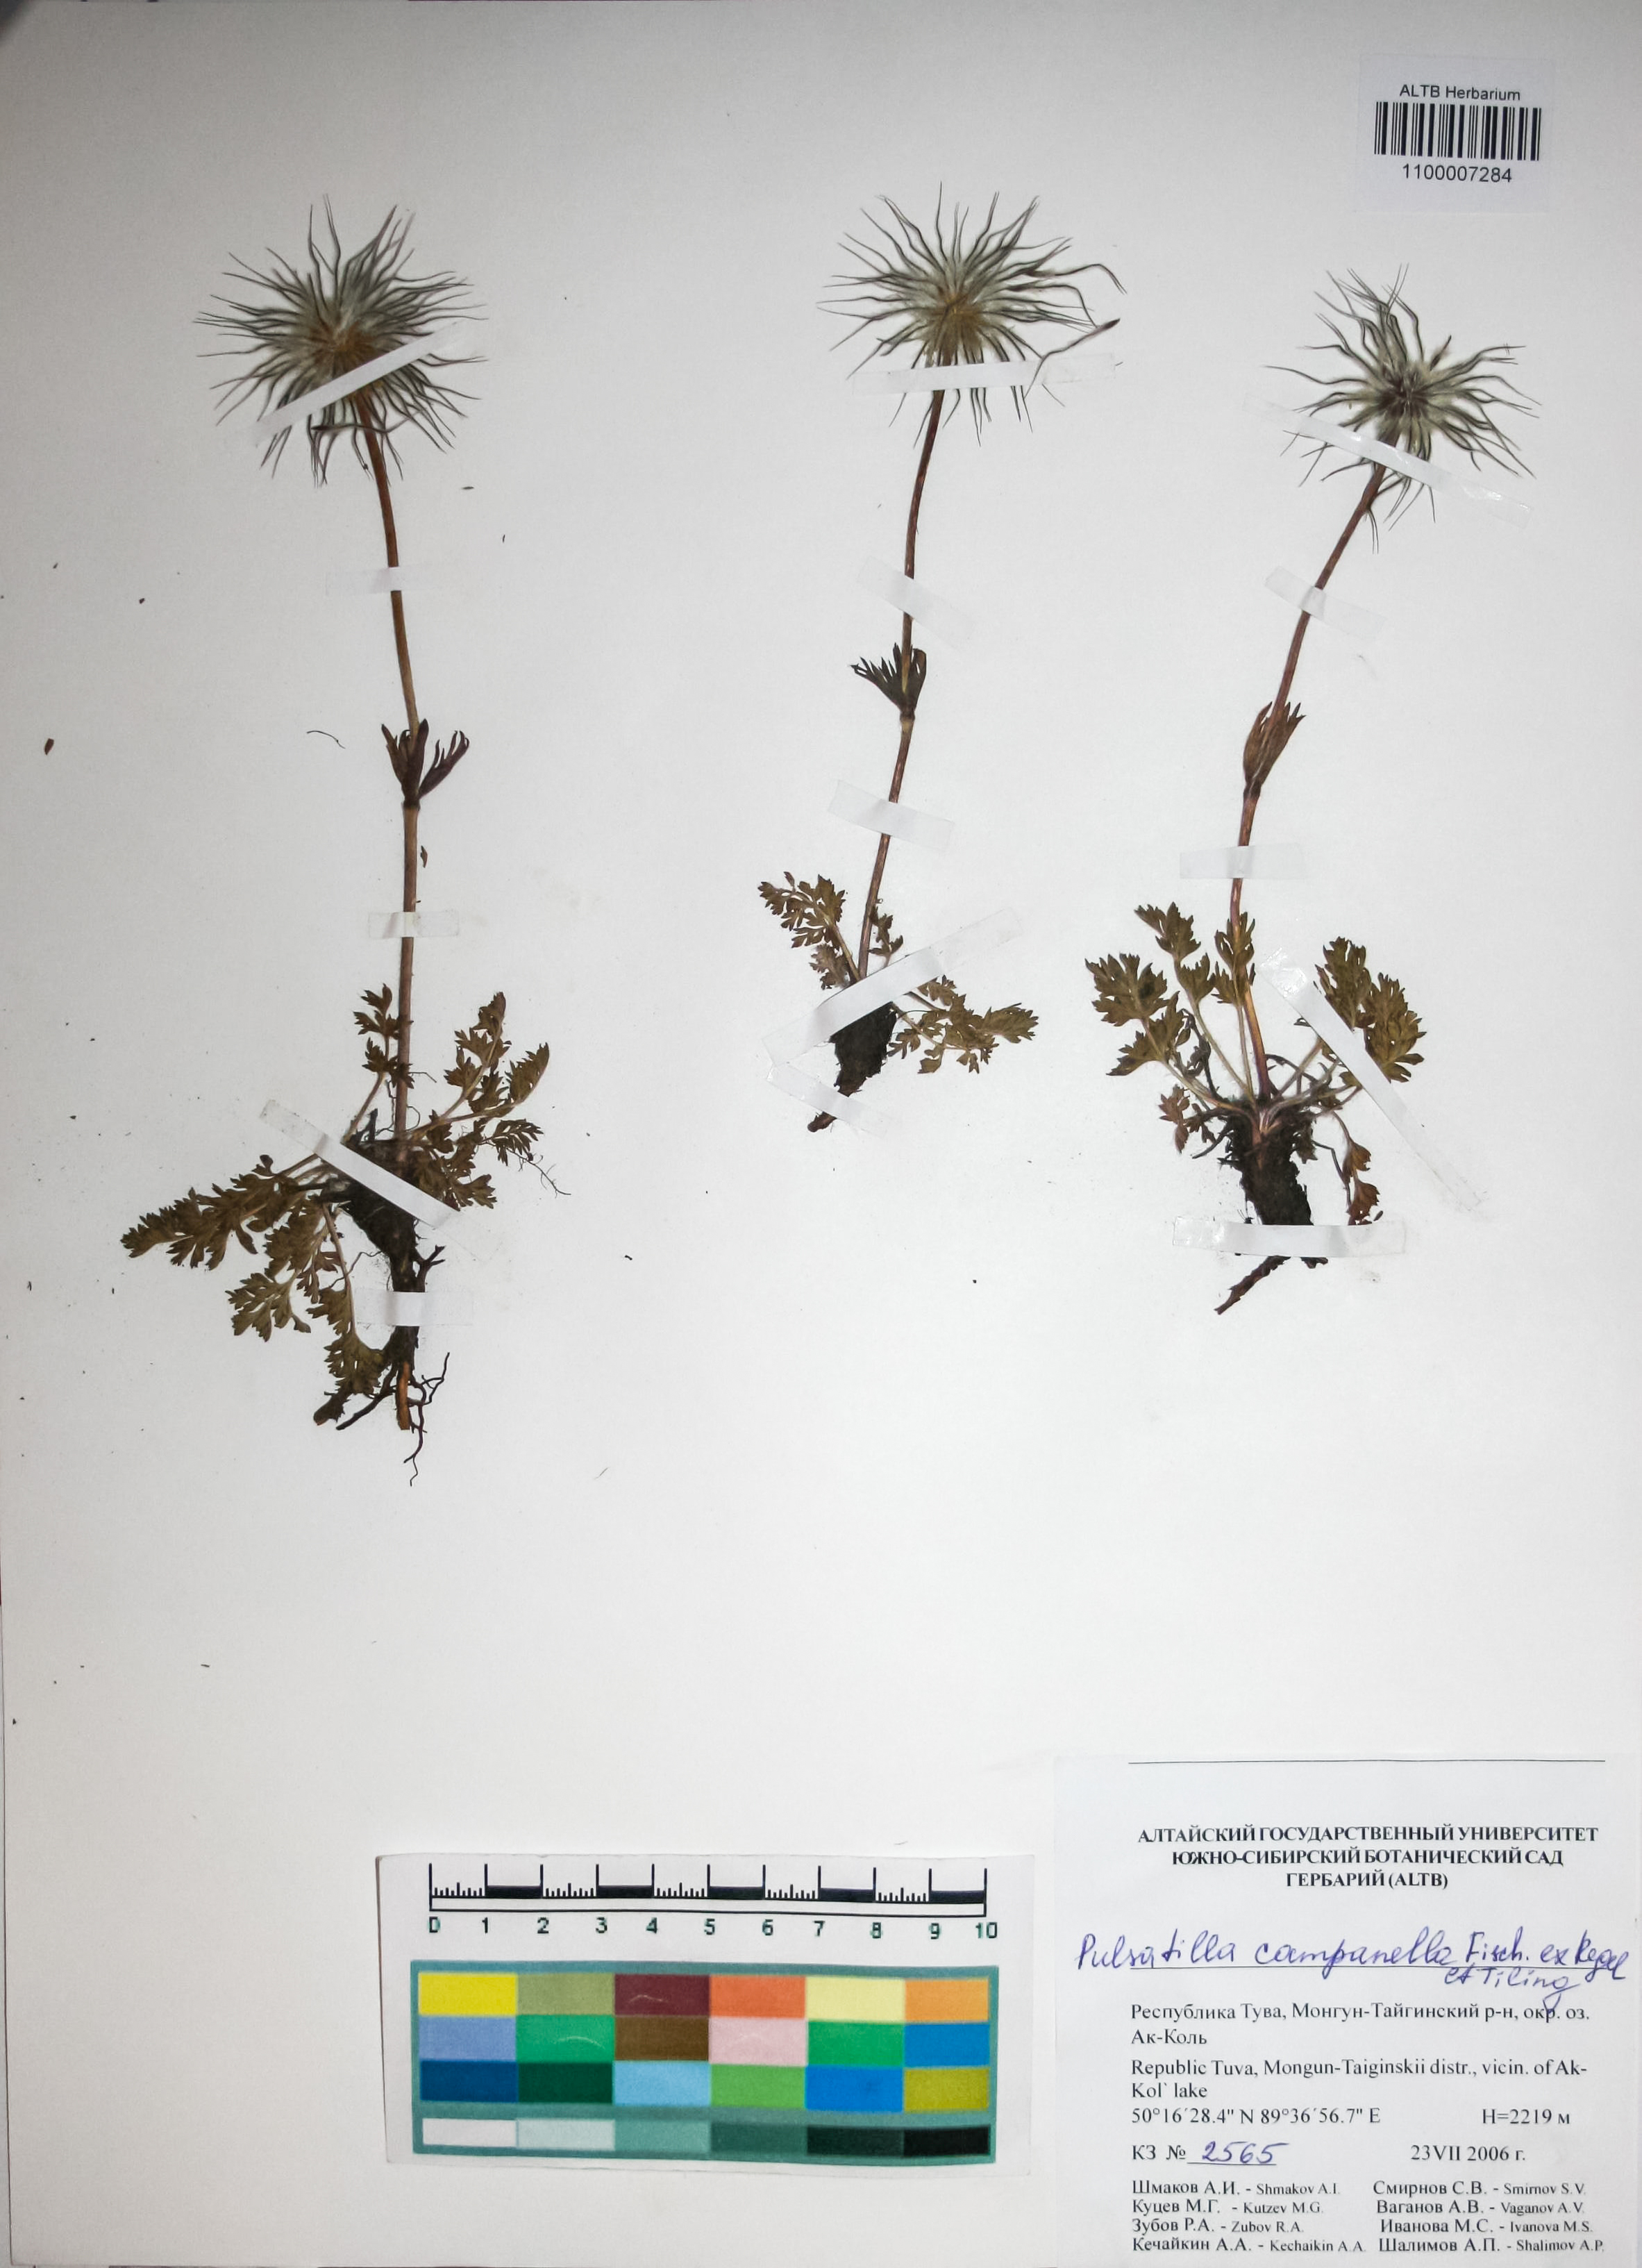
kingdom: Plantae
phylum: Tracheophyta
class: Magnoliopsida
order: Ranunculales
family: Ranunculaceae
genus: Pulsatilla
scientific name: Pulsatilla campanella
